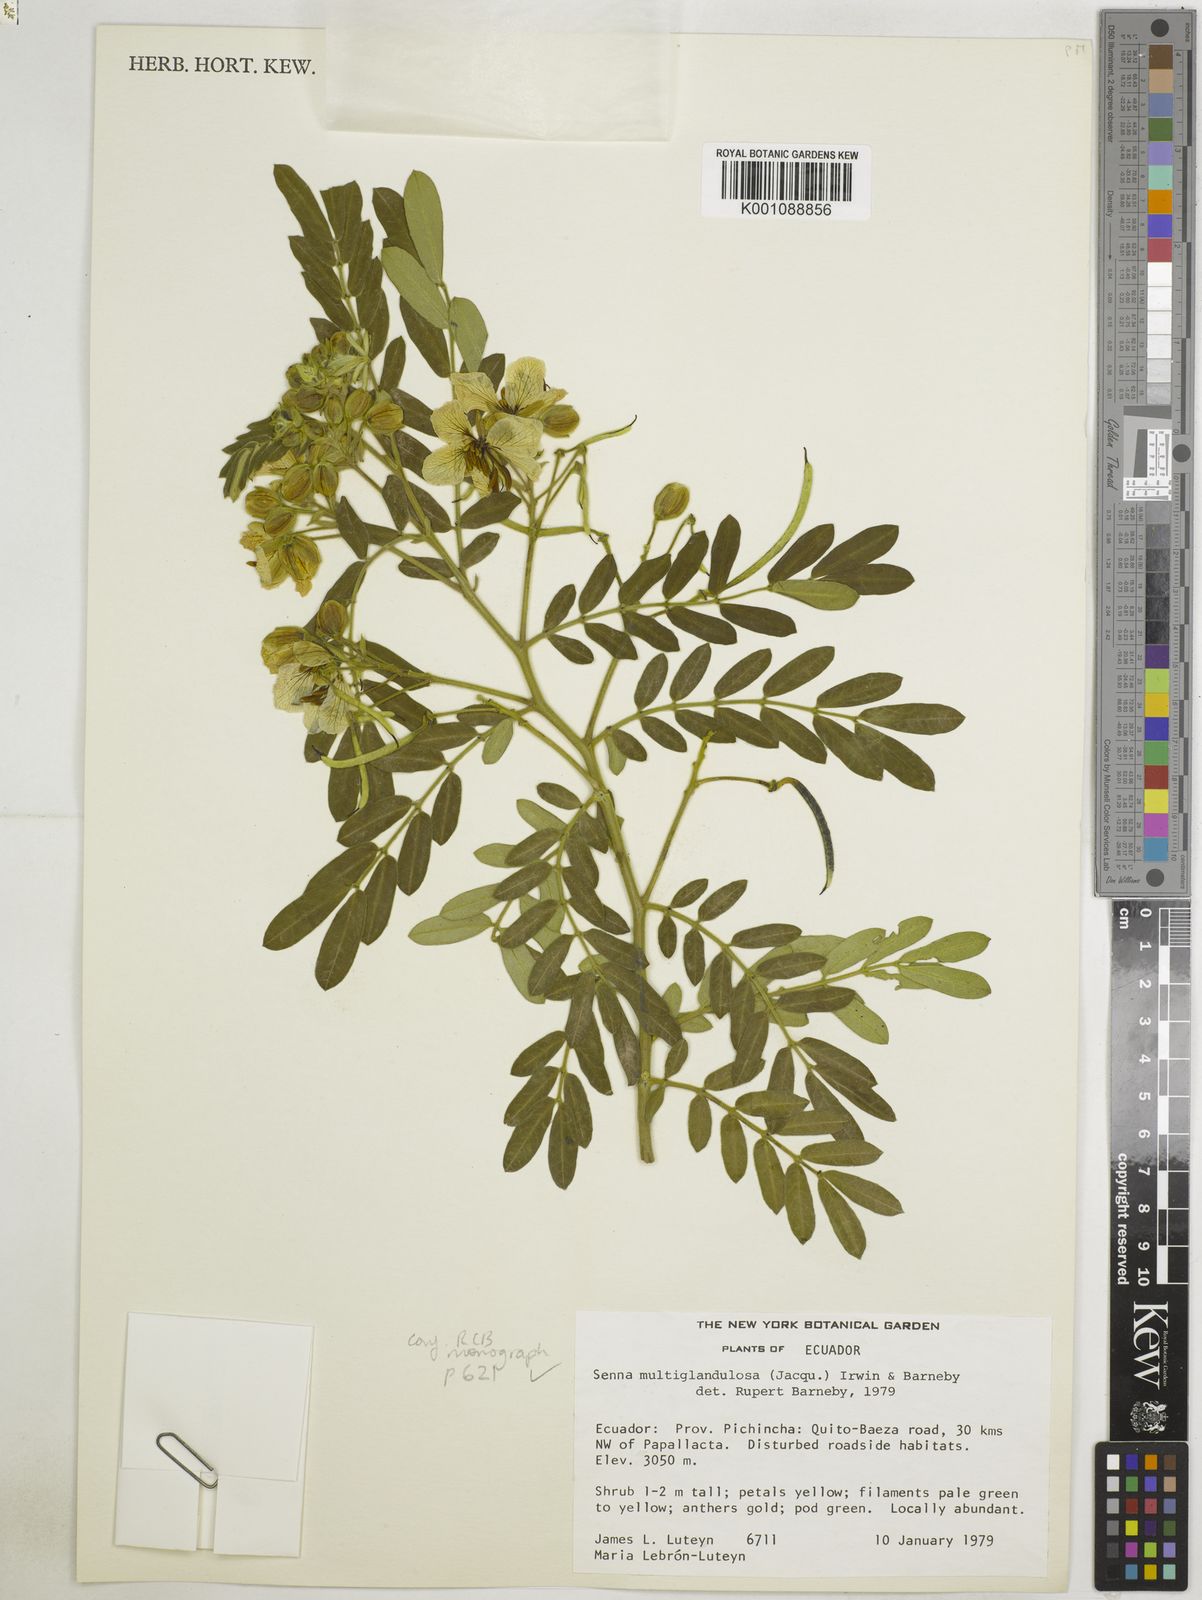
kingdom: Plantae
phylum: Tracheophyta
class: Magnoliopsida
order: Fabales
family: Fabaceae
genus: Senna
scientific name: Senna multiglandulosa
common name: Glandular senna
